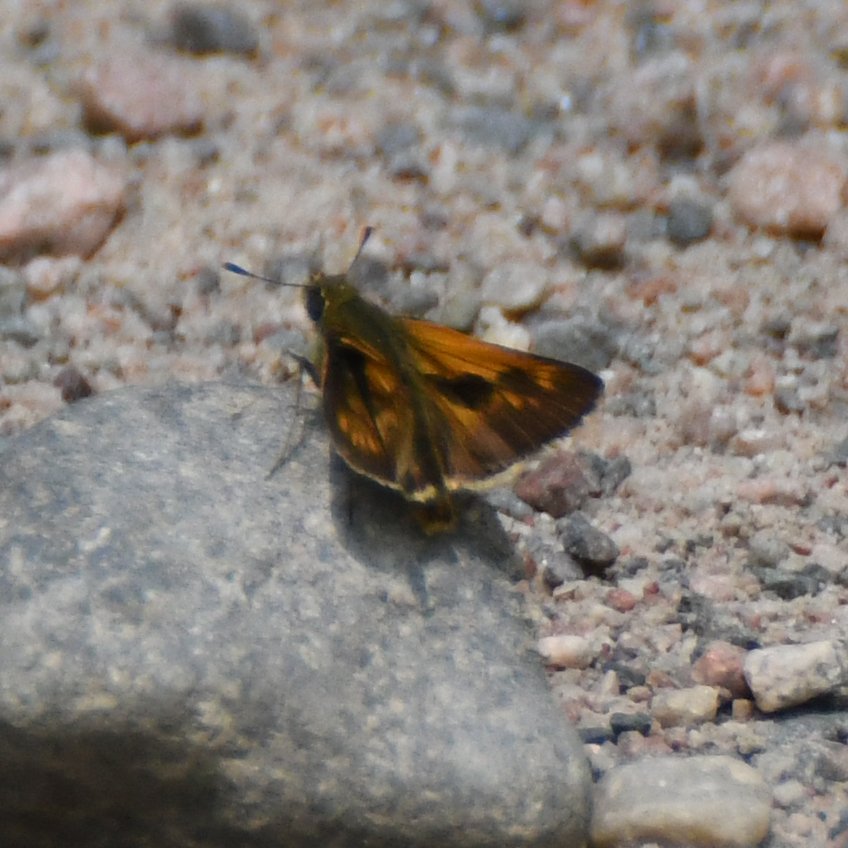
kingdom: Animalia
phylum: Arthropoda
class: Insecta
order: Lepidoptera
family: Hesperiidae
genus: Polites
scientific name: Polites
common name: Long Dash Skipper
